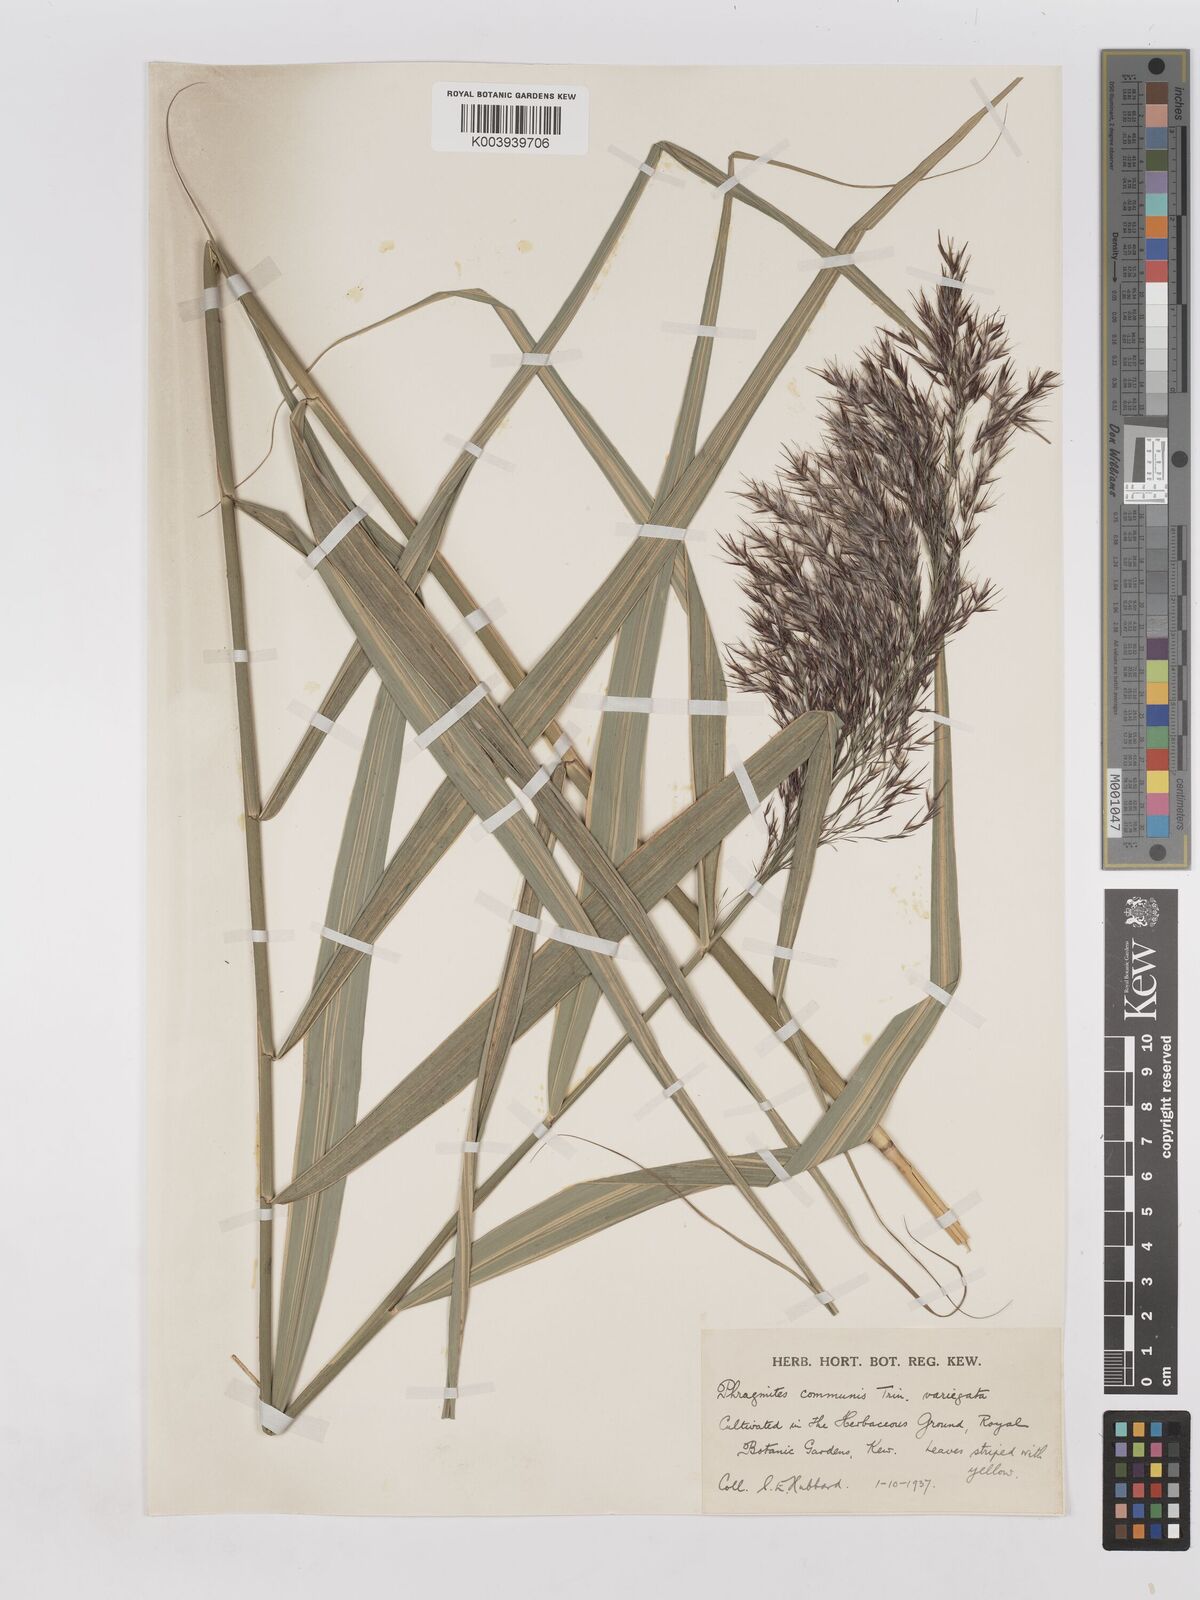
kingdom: Plantae
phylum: Tracheophyta
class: Liliopsida
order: Poales
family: Poaceae
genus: Phragmites
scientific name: Phragmites australis
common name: Common reed
